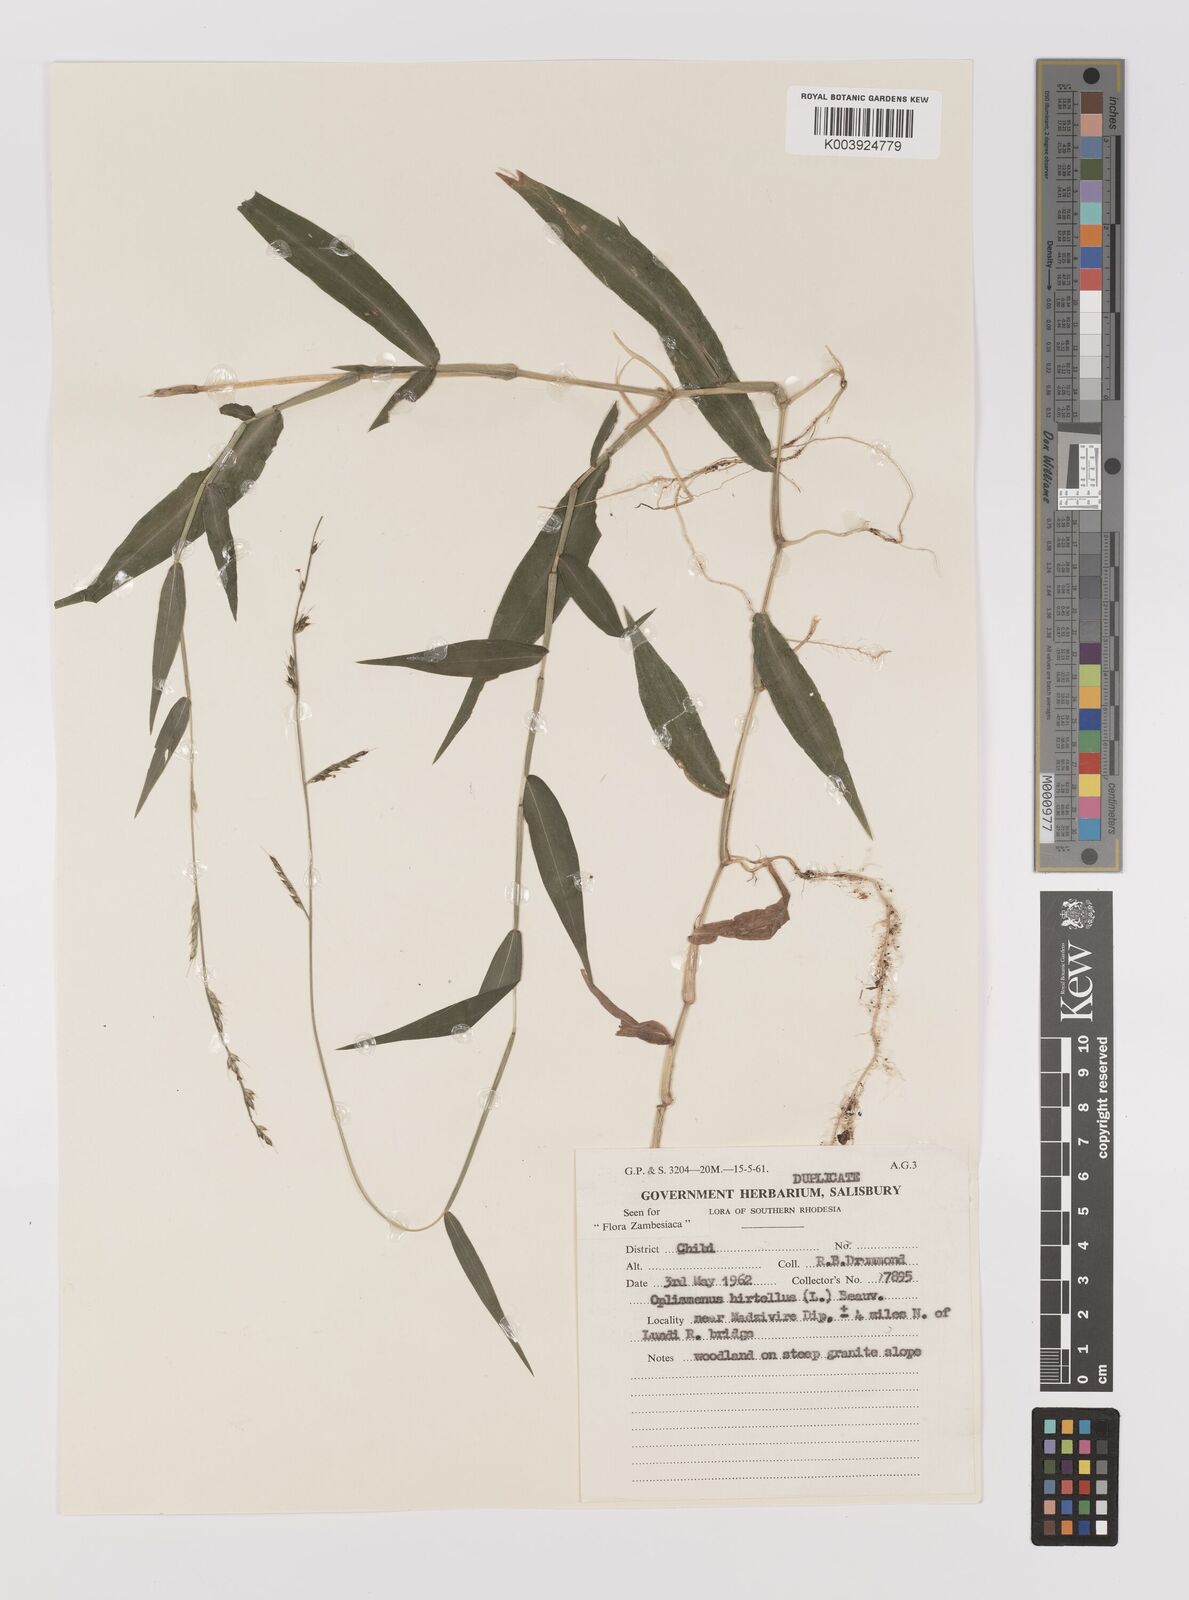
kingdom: Plantae
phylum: Tracheophyta
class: Liliopsida
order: Poales
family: Poaceae
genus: Oplismenus
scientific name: Oplismenus hirtellus
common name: Basketgrass
